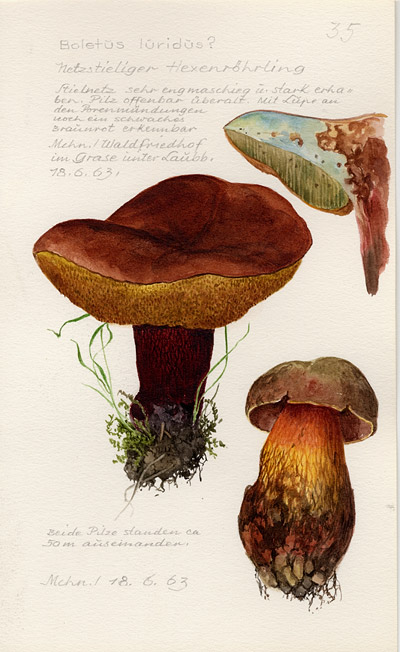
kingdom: Fungi
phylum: Basidiomycota
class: Agaricomycetes
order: Boletales
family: Boletaceae
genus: Suillellus
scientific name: Suillellus luridus
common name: Lurid bolete
